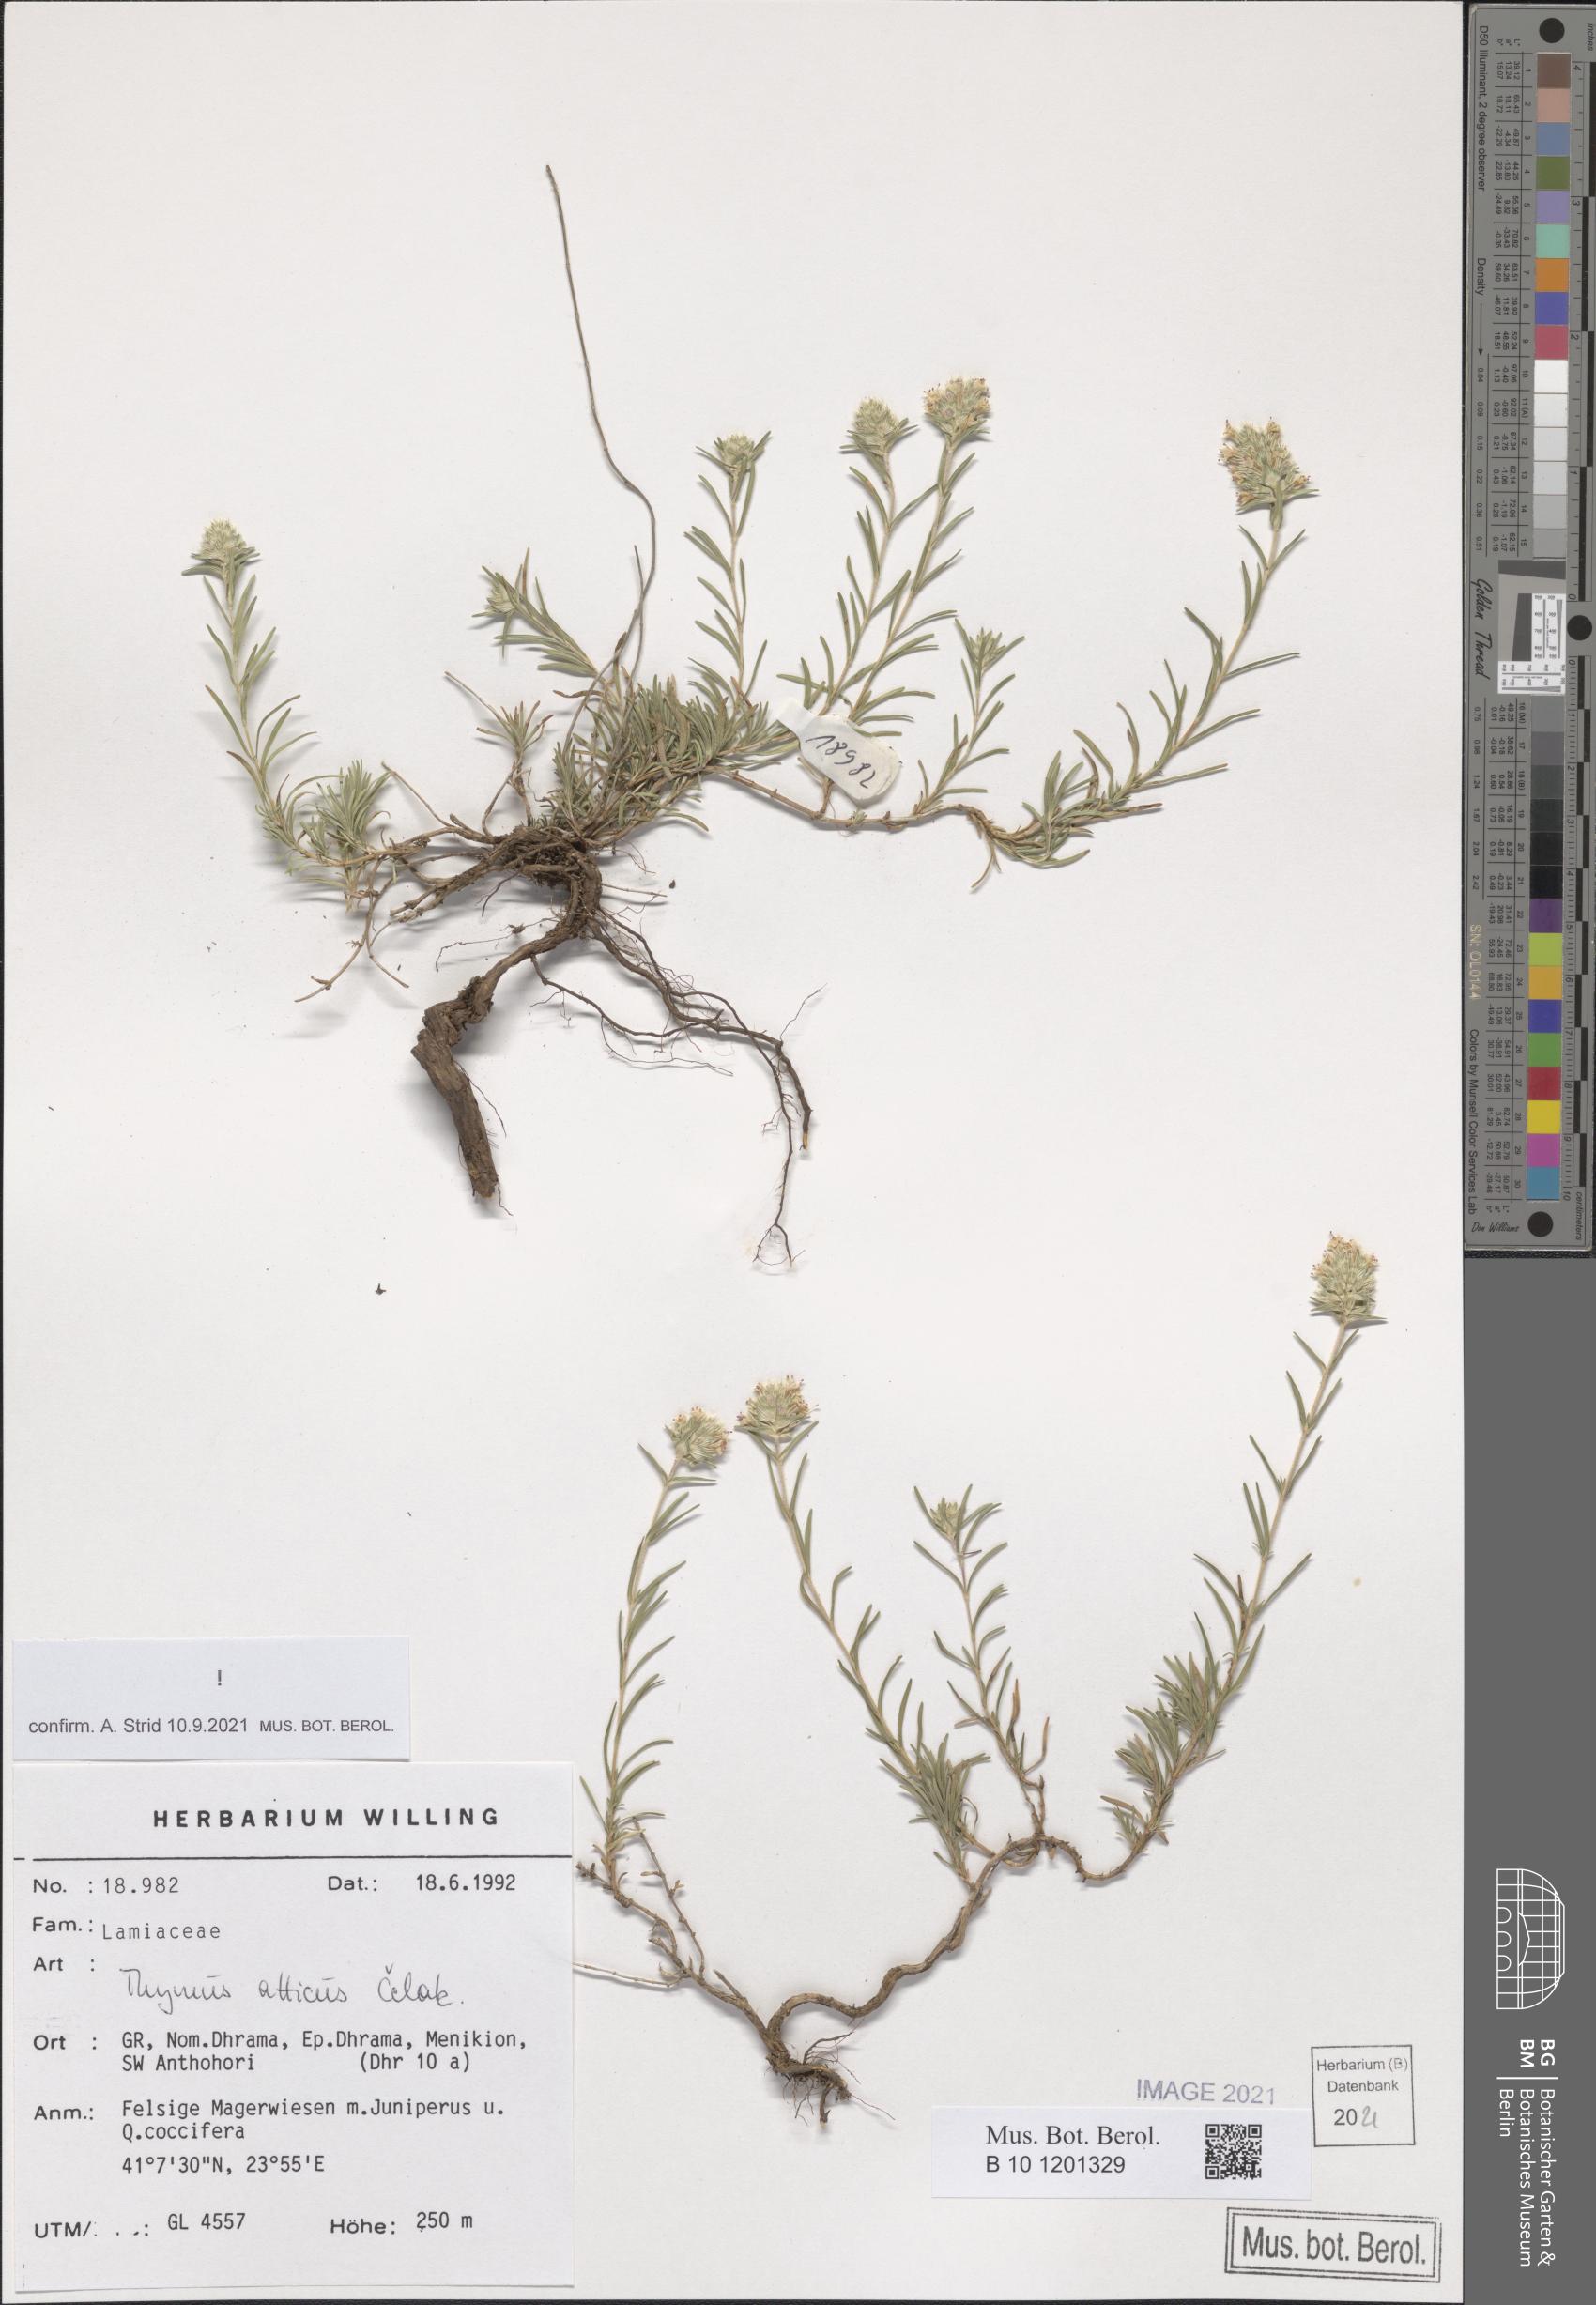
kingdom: Plantae
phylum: Tracheophyta
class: Magnoliopsida
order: Lamiales
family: Lamiaceae
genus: Thymus
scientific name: Thymus atticus
